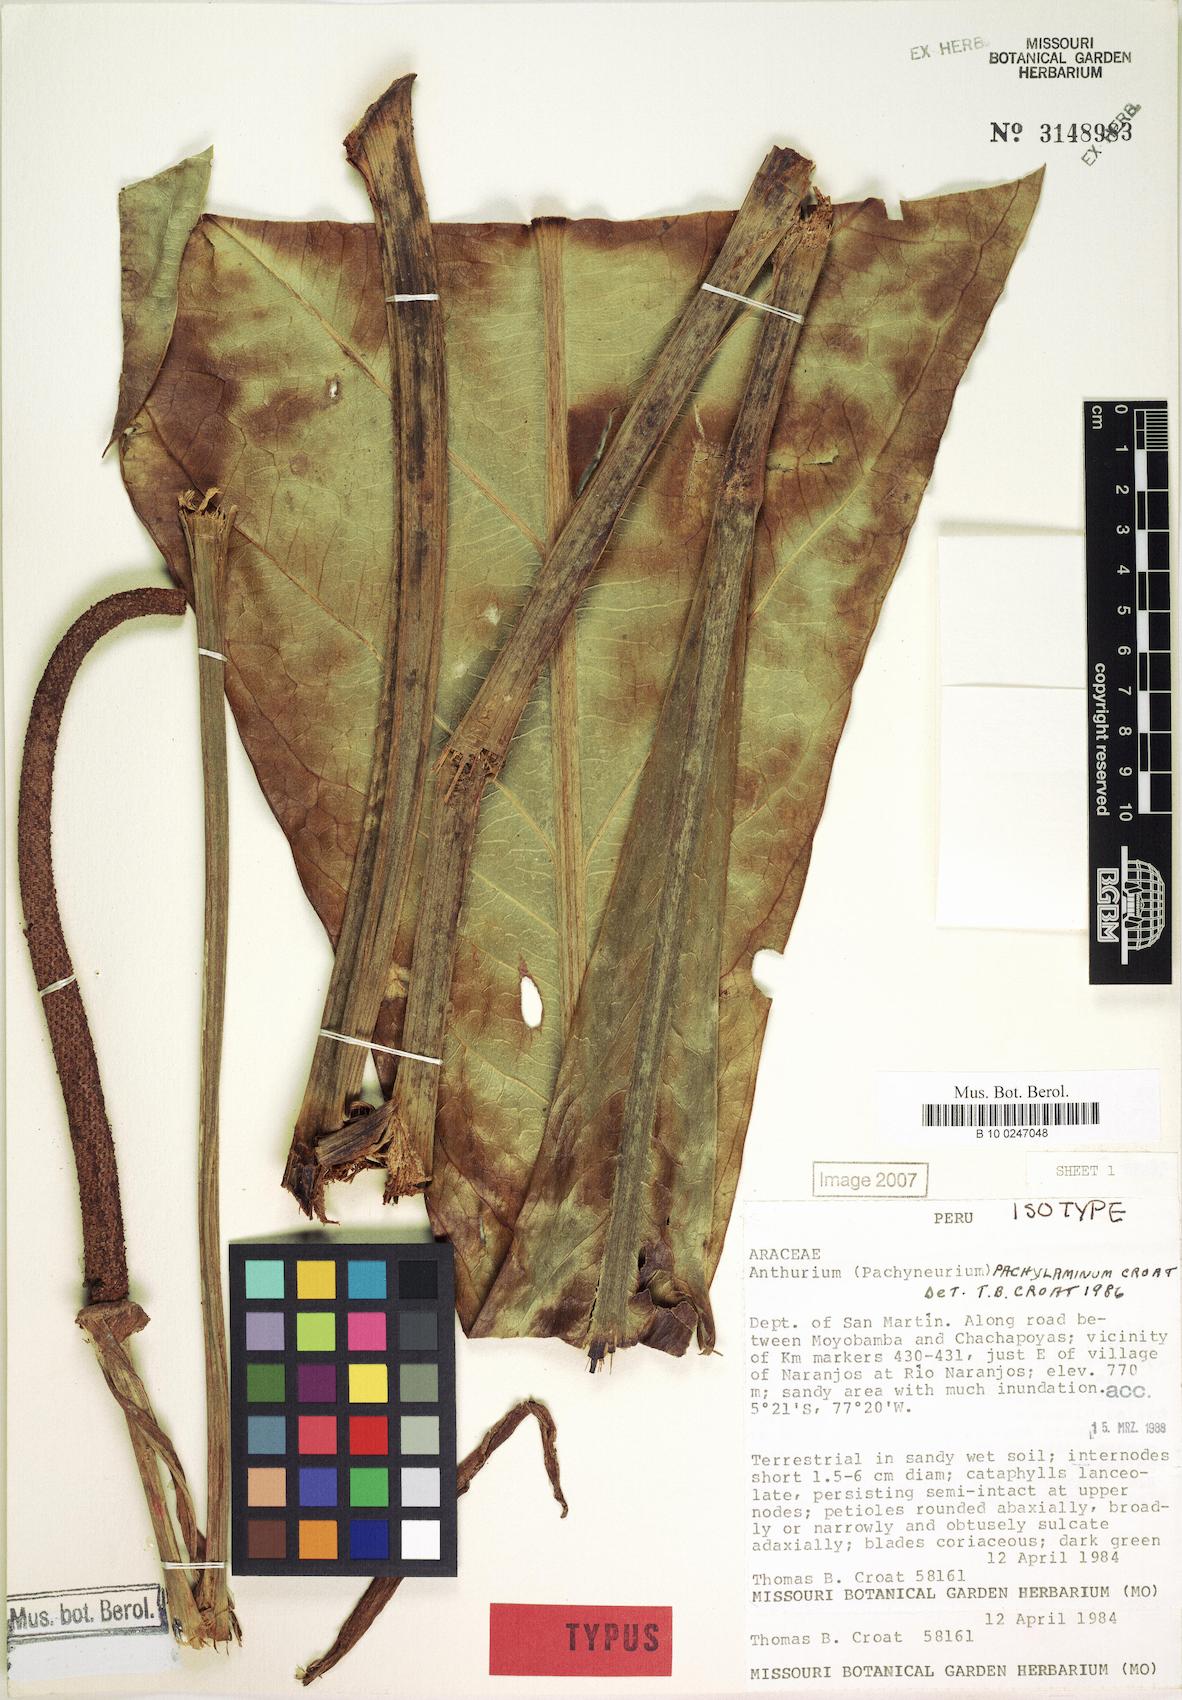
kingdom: Plantae
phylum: Tracheophyta
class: Liliopsida
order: Alismatales
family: Araceae
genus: Anthurium
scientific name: Anthurium pachylaminum
